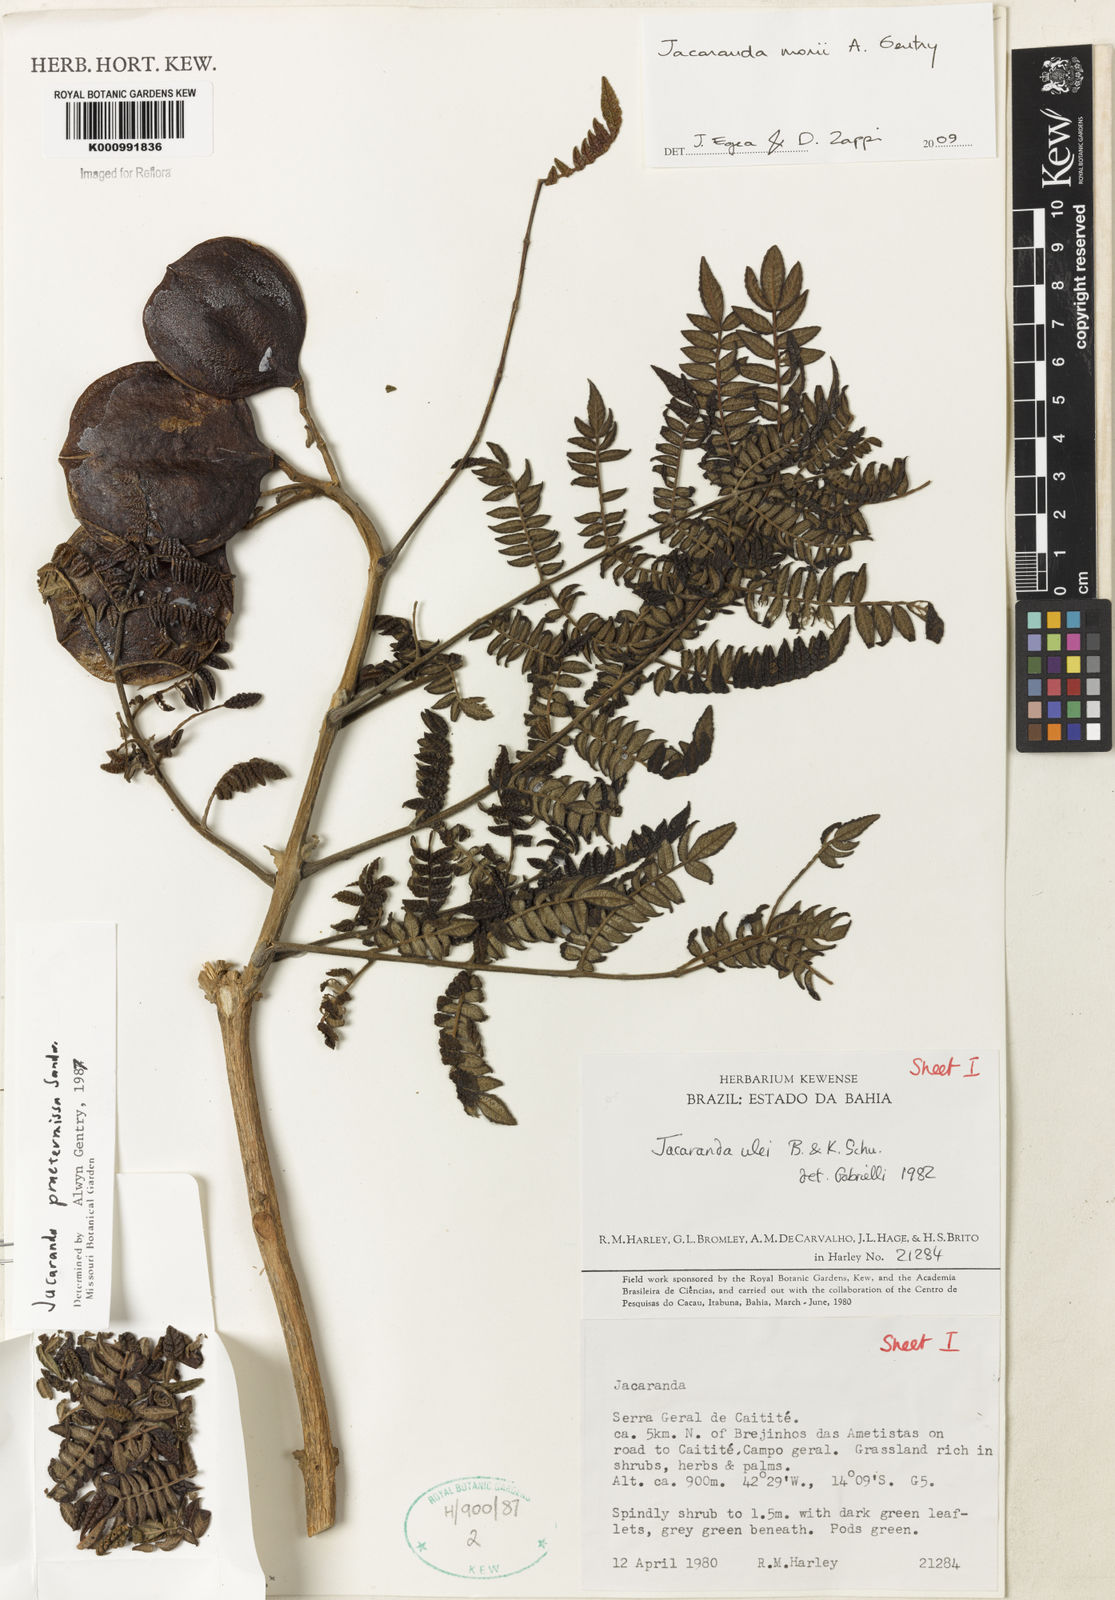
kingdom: Plantae
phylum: Tracheophyta
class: Magnoliopsida
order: Lamiales
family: Bignoniaceae
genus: Jacaranda
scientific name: Jacaranda ulei
